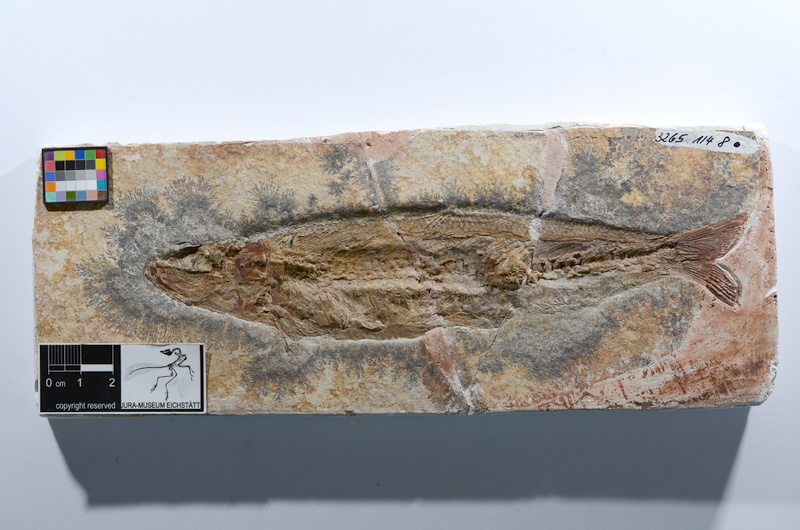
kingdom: Animalia
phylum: Chordata
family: Ascalaboidae
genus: Tharsis
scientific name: Tharsis dubius
